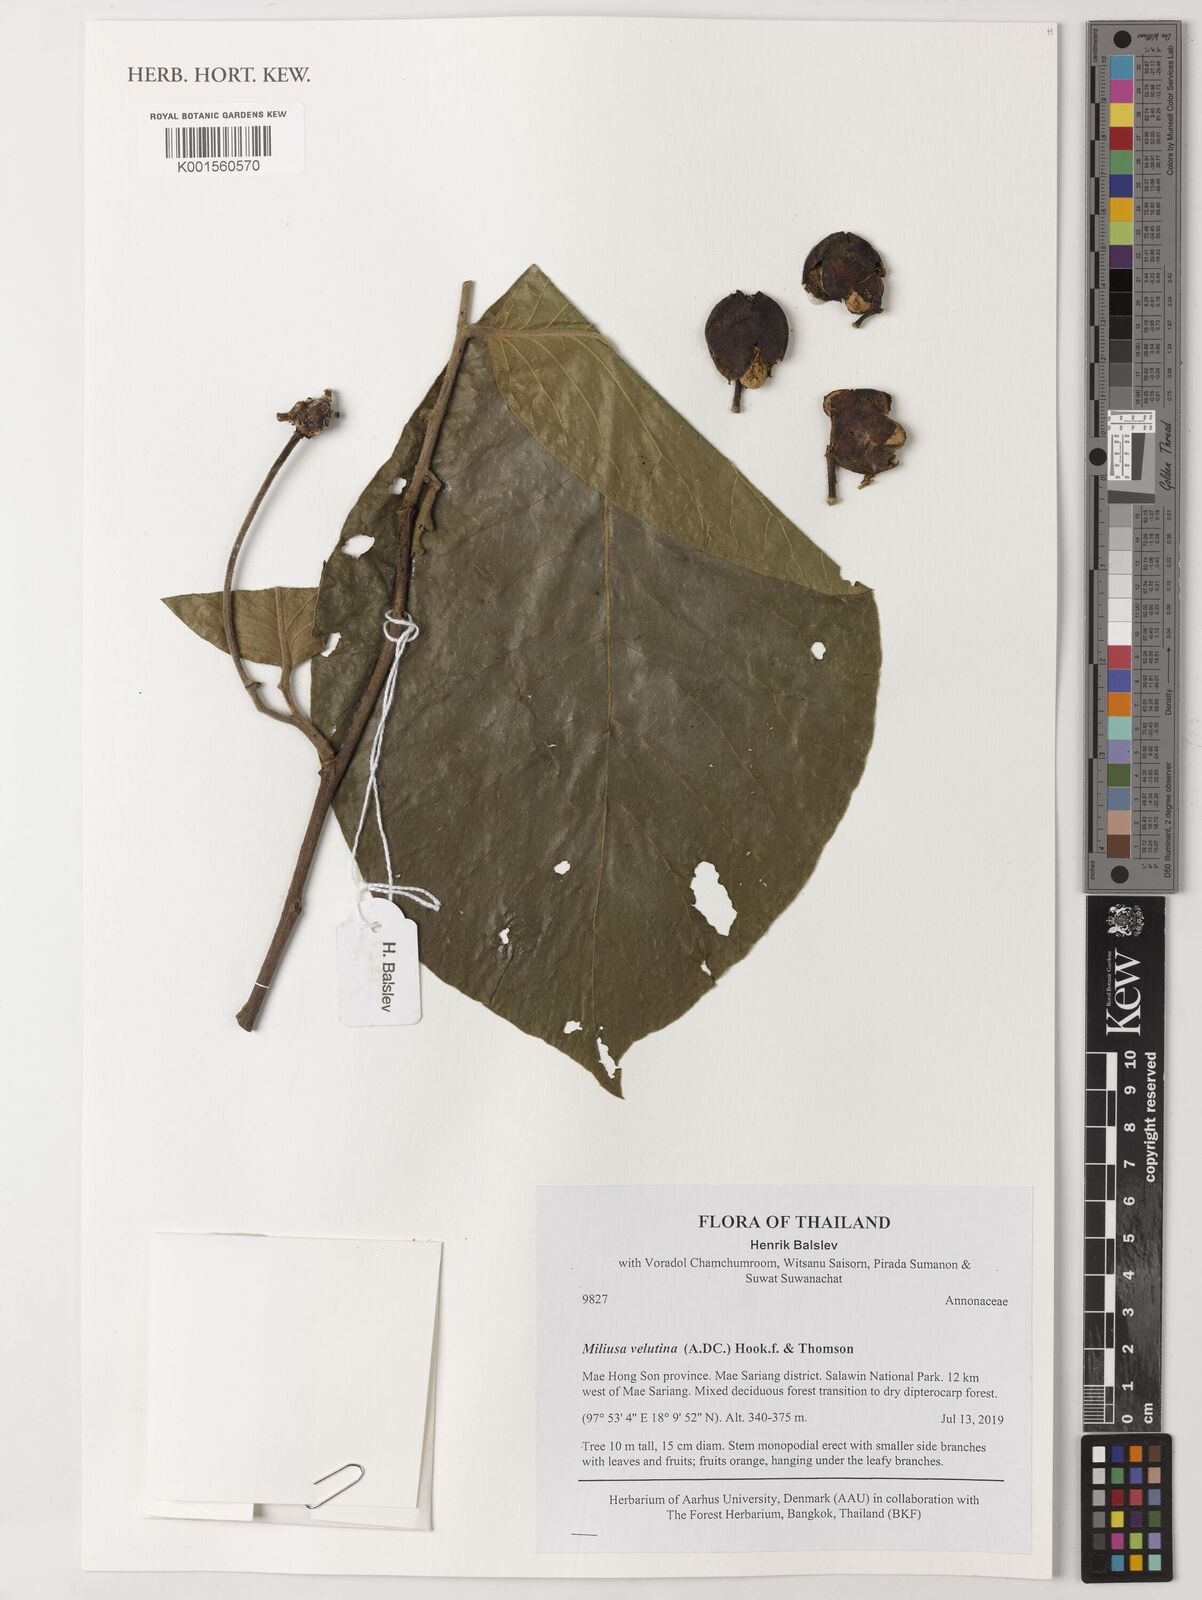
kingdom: Plantae
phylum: Tracheophyta
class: Magnoliopsida
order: Magnoliales
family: Annonaceae
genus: Miliusa
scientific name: Miliusa velutina
